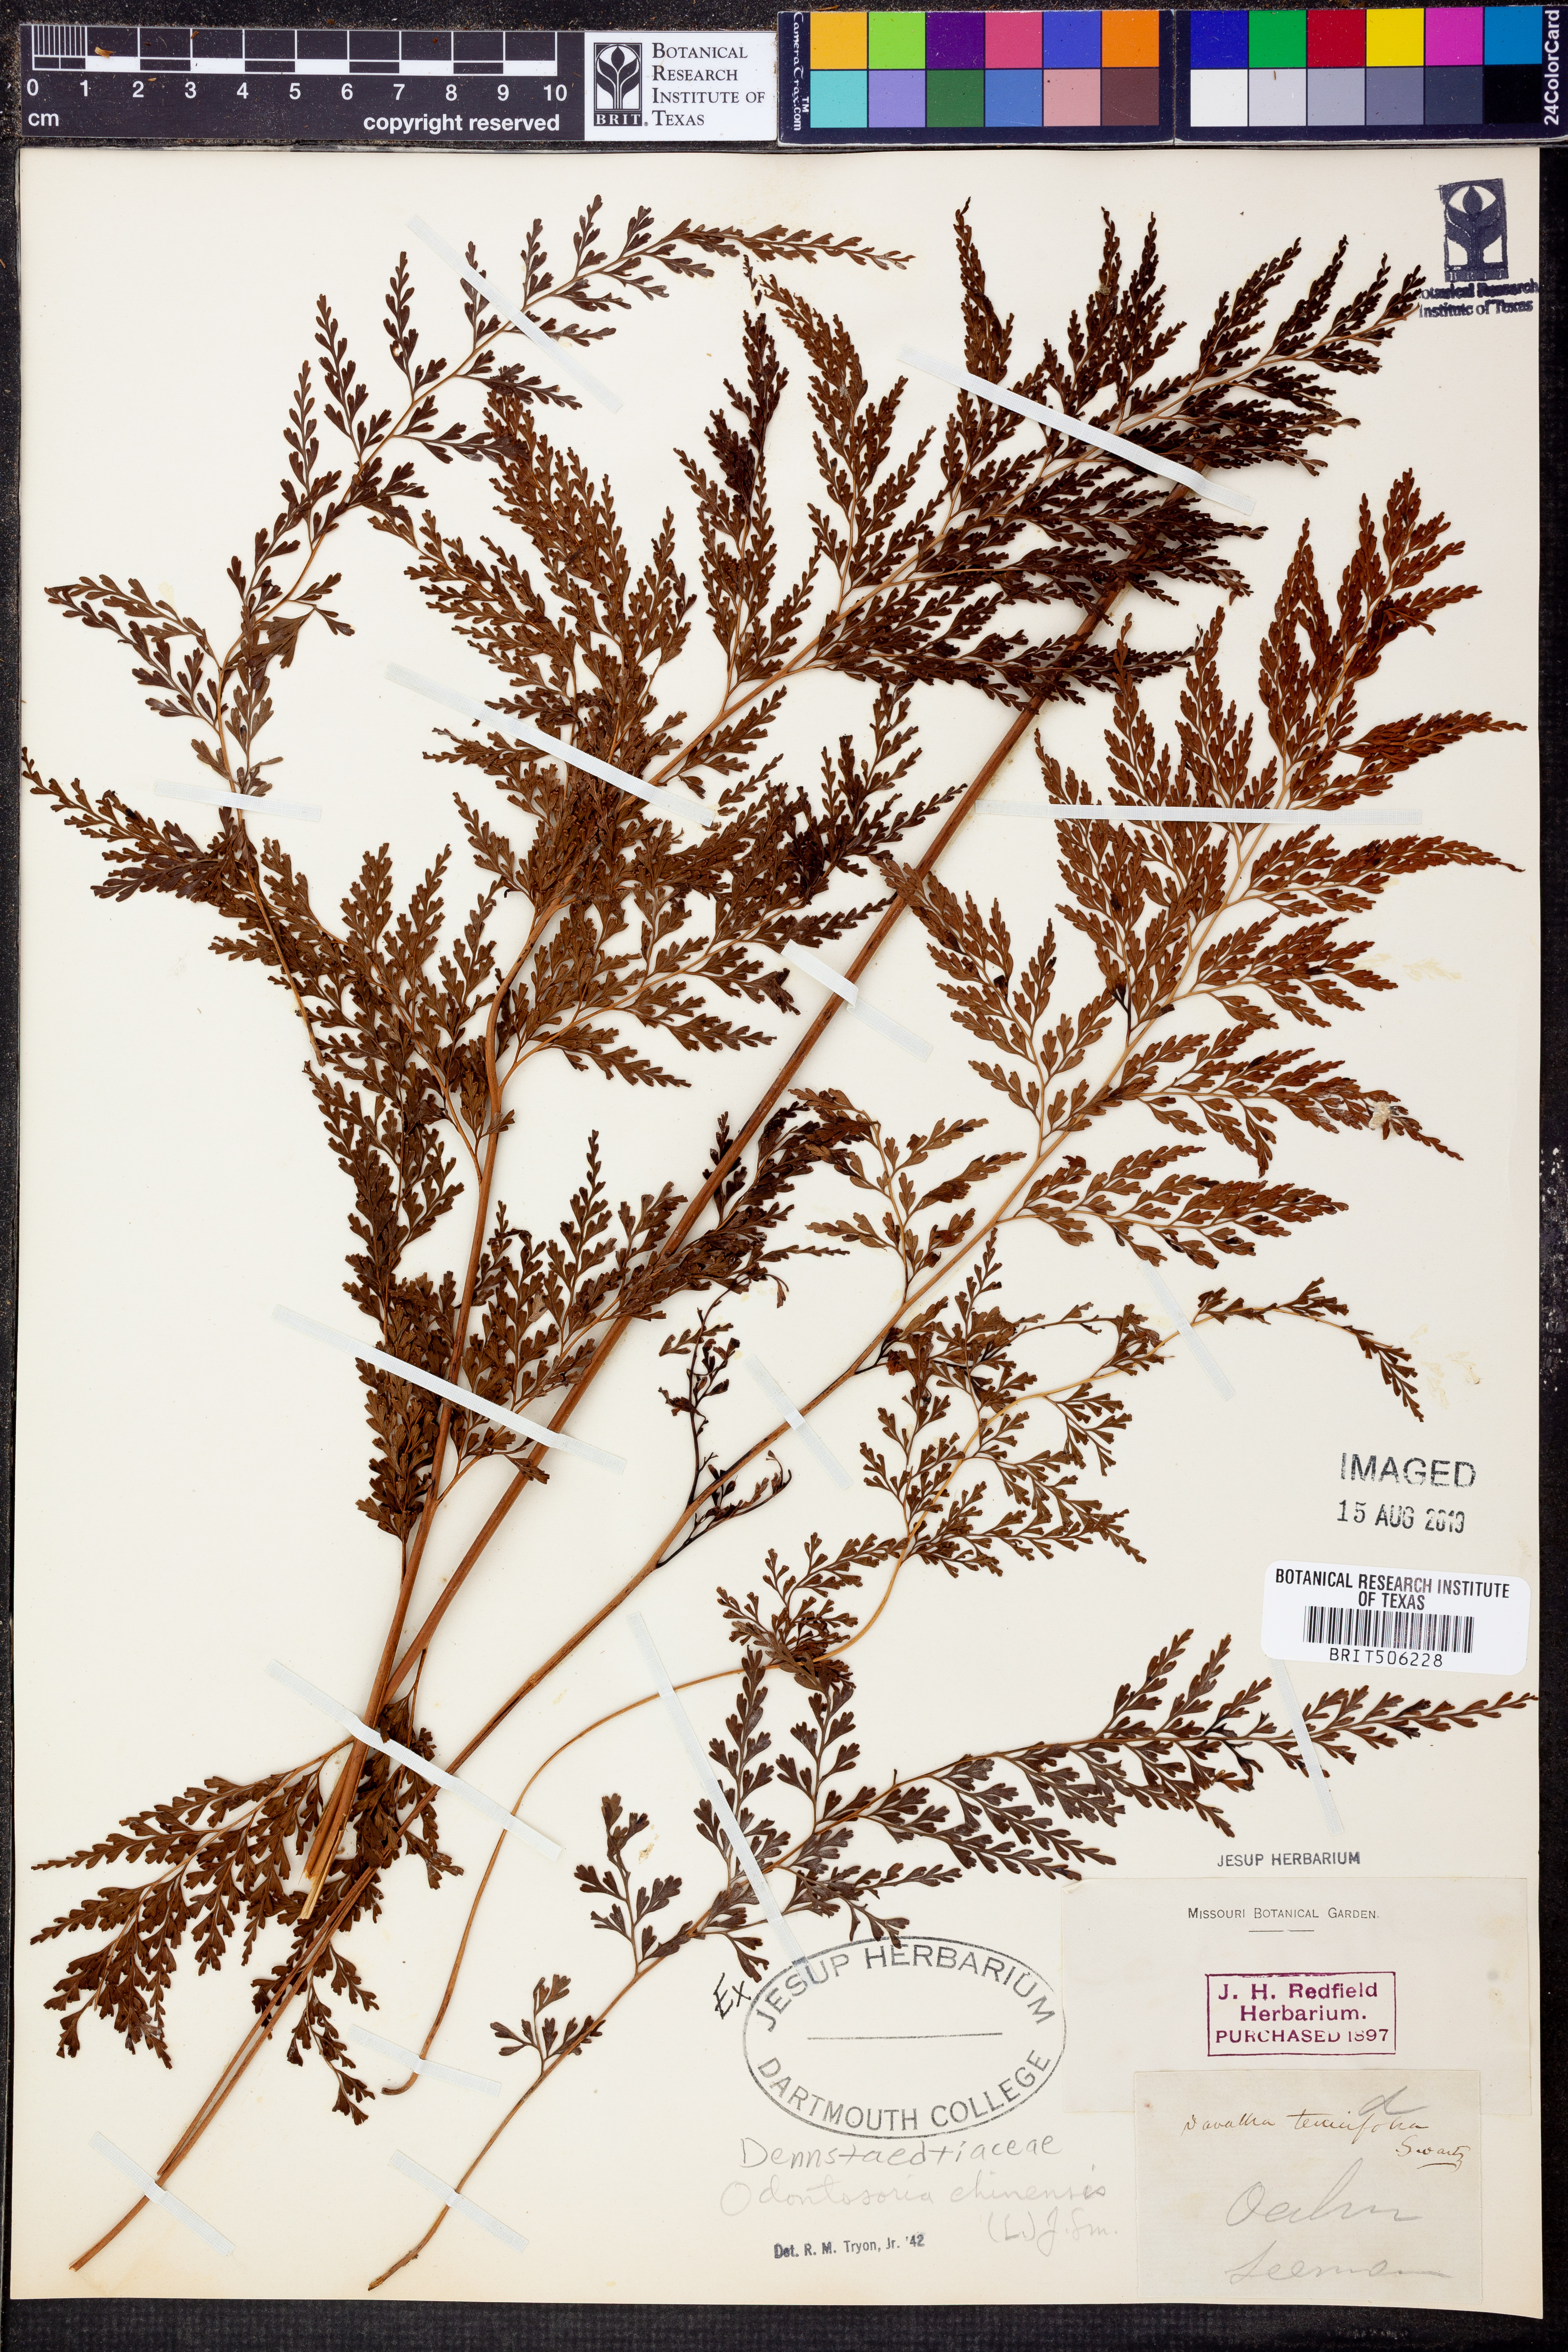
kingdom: Plantae
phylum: Tracheophyta
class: Polypodiopsida
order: Polypodiales
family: Lindsaeaceae
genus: Odontosoria
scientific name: Odontosoria chinensis
